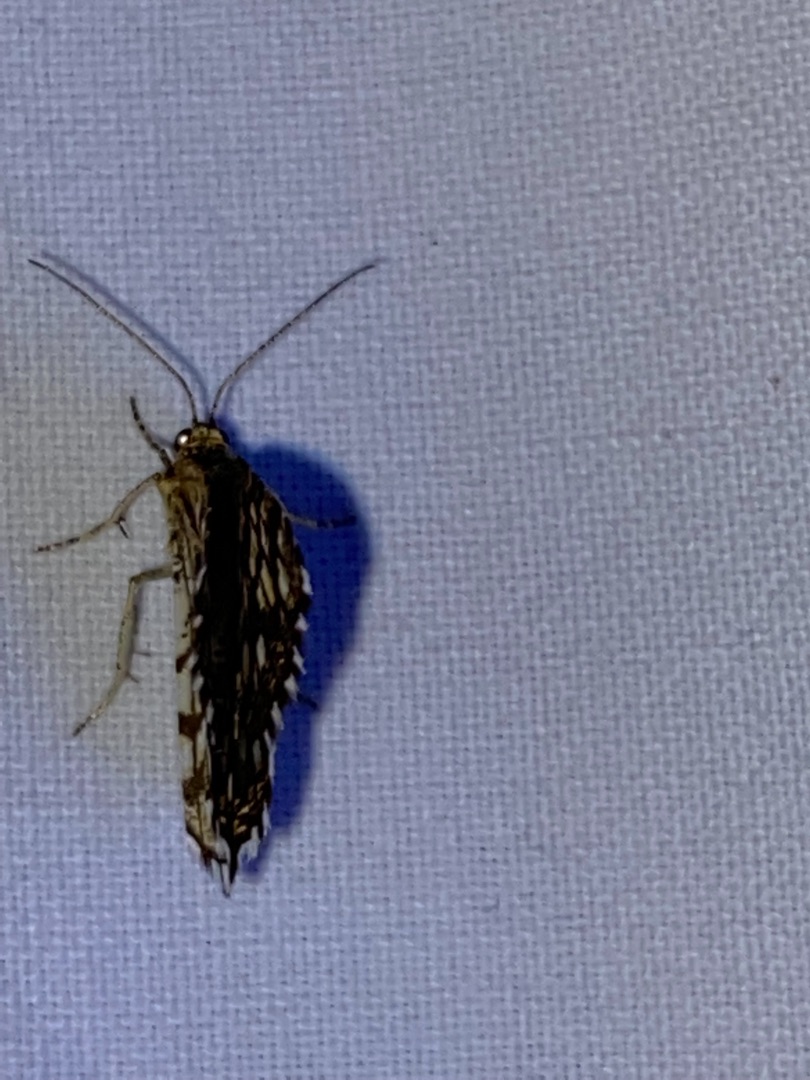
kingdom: Animalia
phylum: Arthropoda
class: Insecta
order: Lepidoptera
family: Geometridae
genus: Chiasmia
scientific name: Chiasmia clathrata
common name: Kløvermåler
